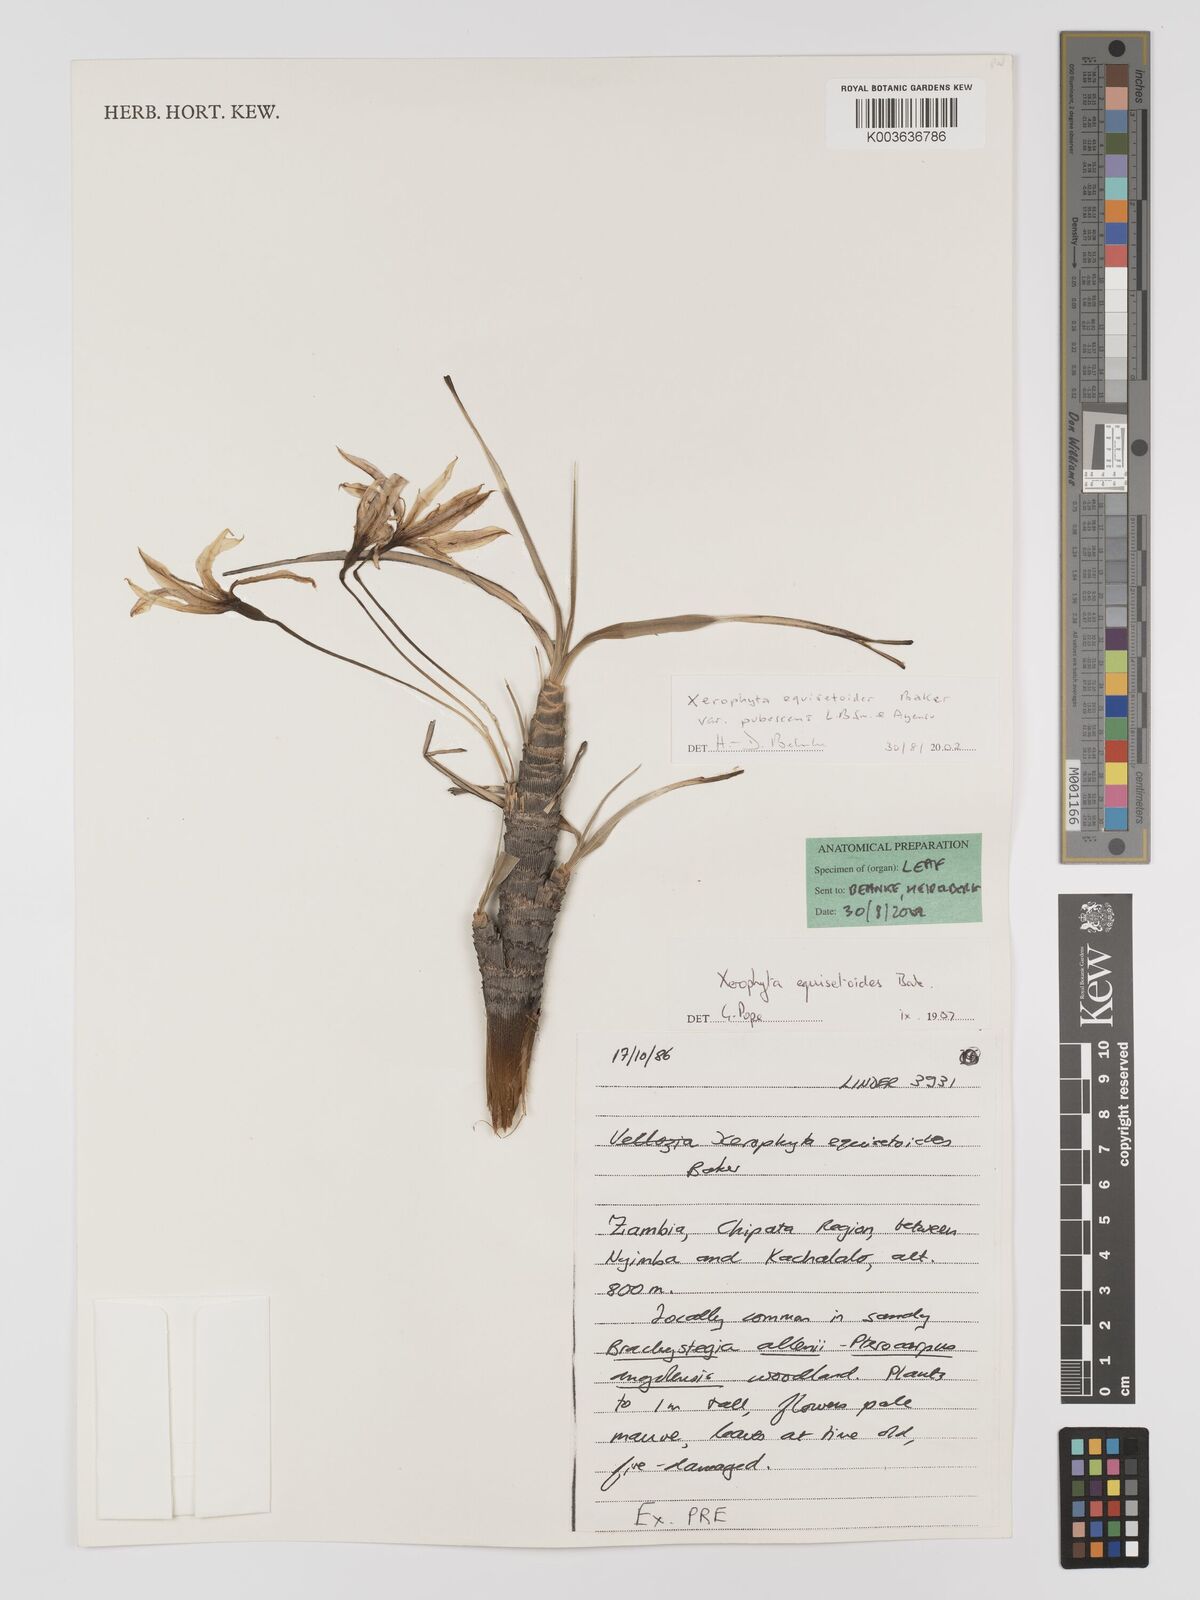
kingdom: Plantae
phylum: Tracheophyta
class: Liliopsida
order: Pandanales
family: Velloziaceae
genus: Xerophyta
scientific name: Xerophyta wentzeliana
